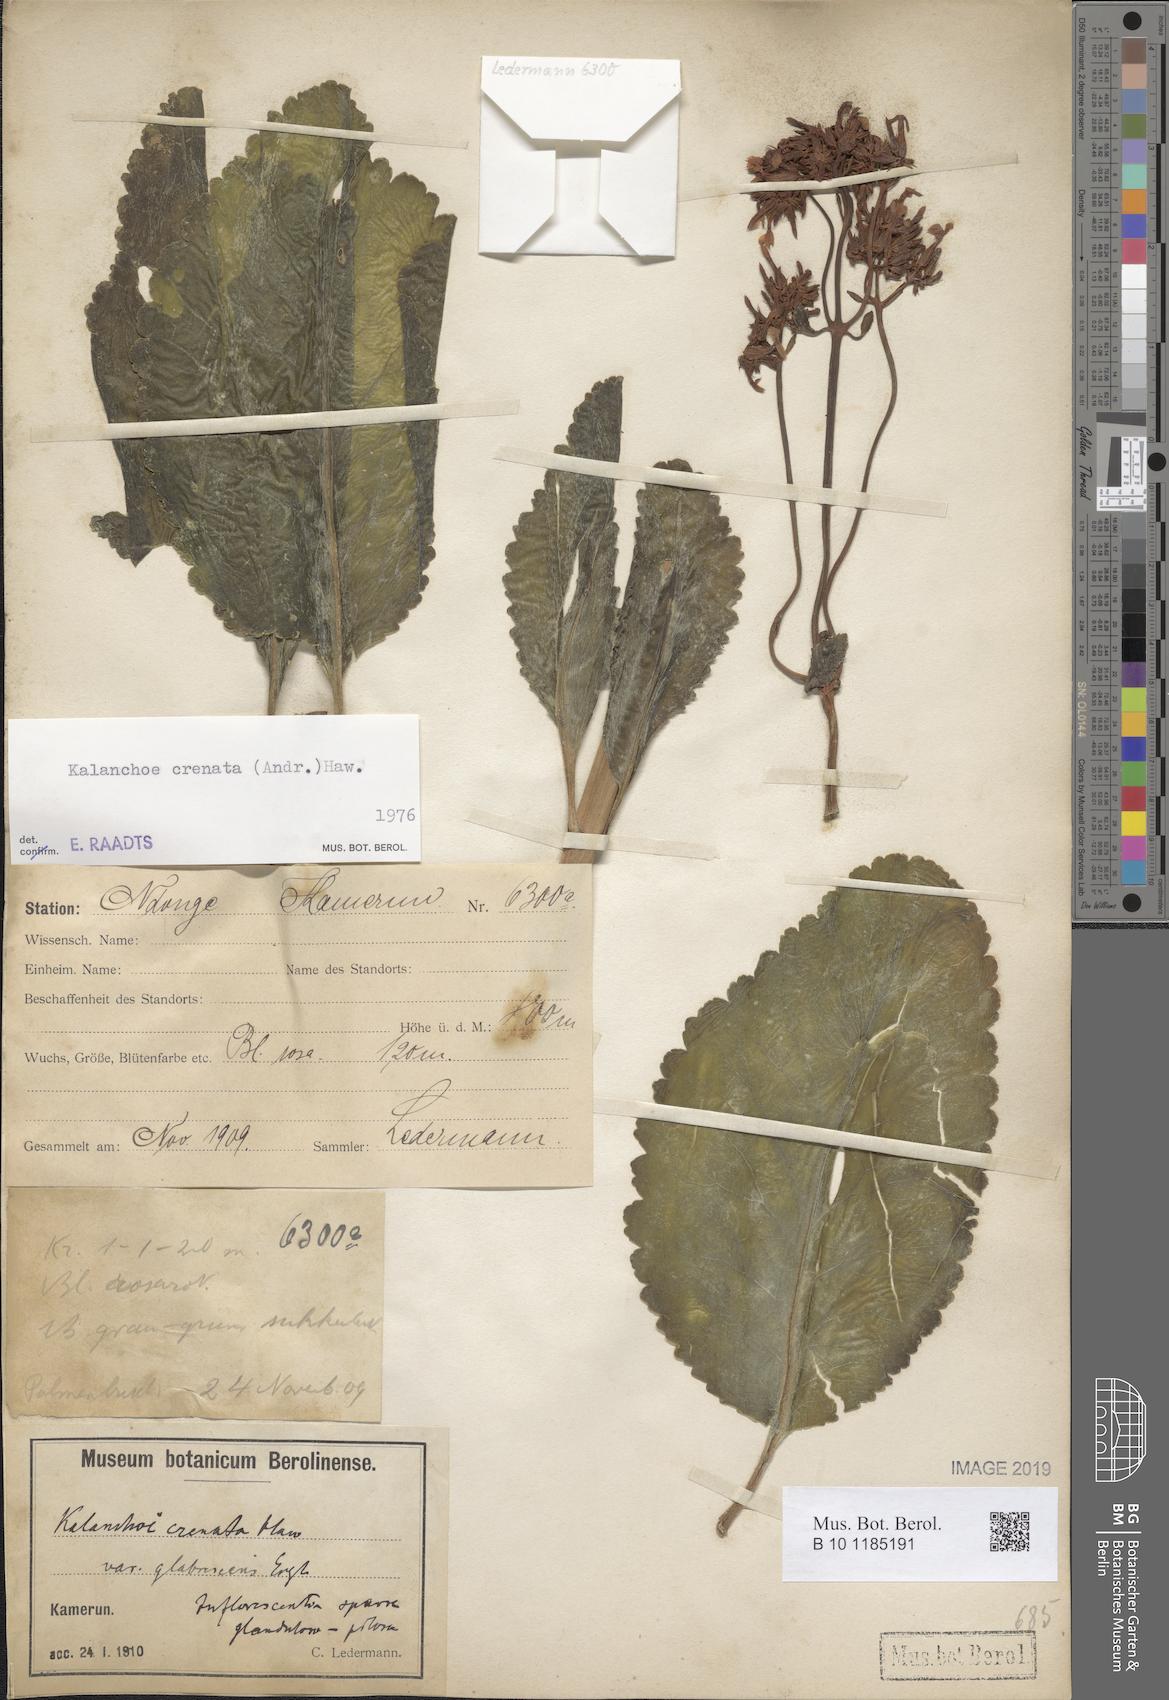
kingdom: Plantae
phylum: Tracheophyta
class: Magnoliopsida
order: Saxifragales
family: Crassulaceae
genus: Kalanchoe
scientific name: Kalanchoe crenata
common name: Neverdie
